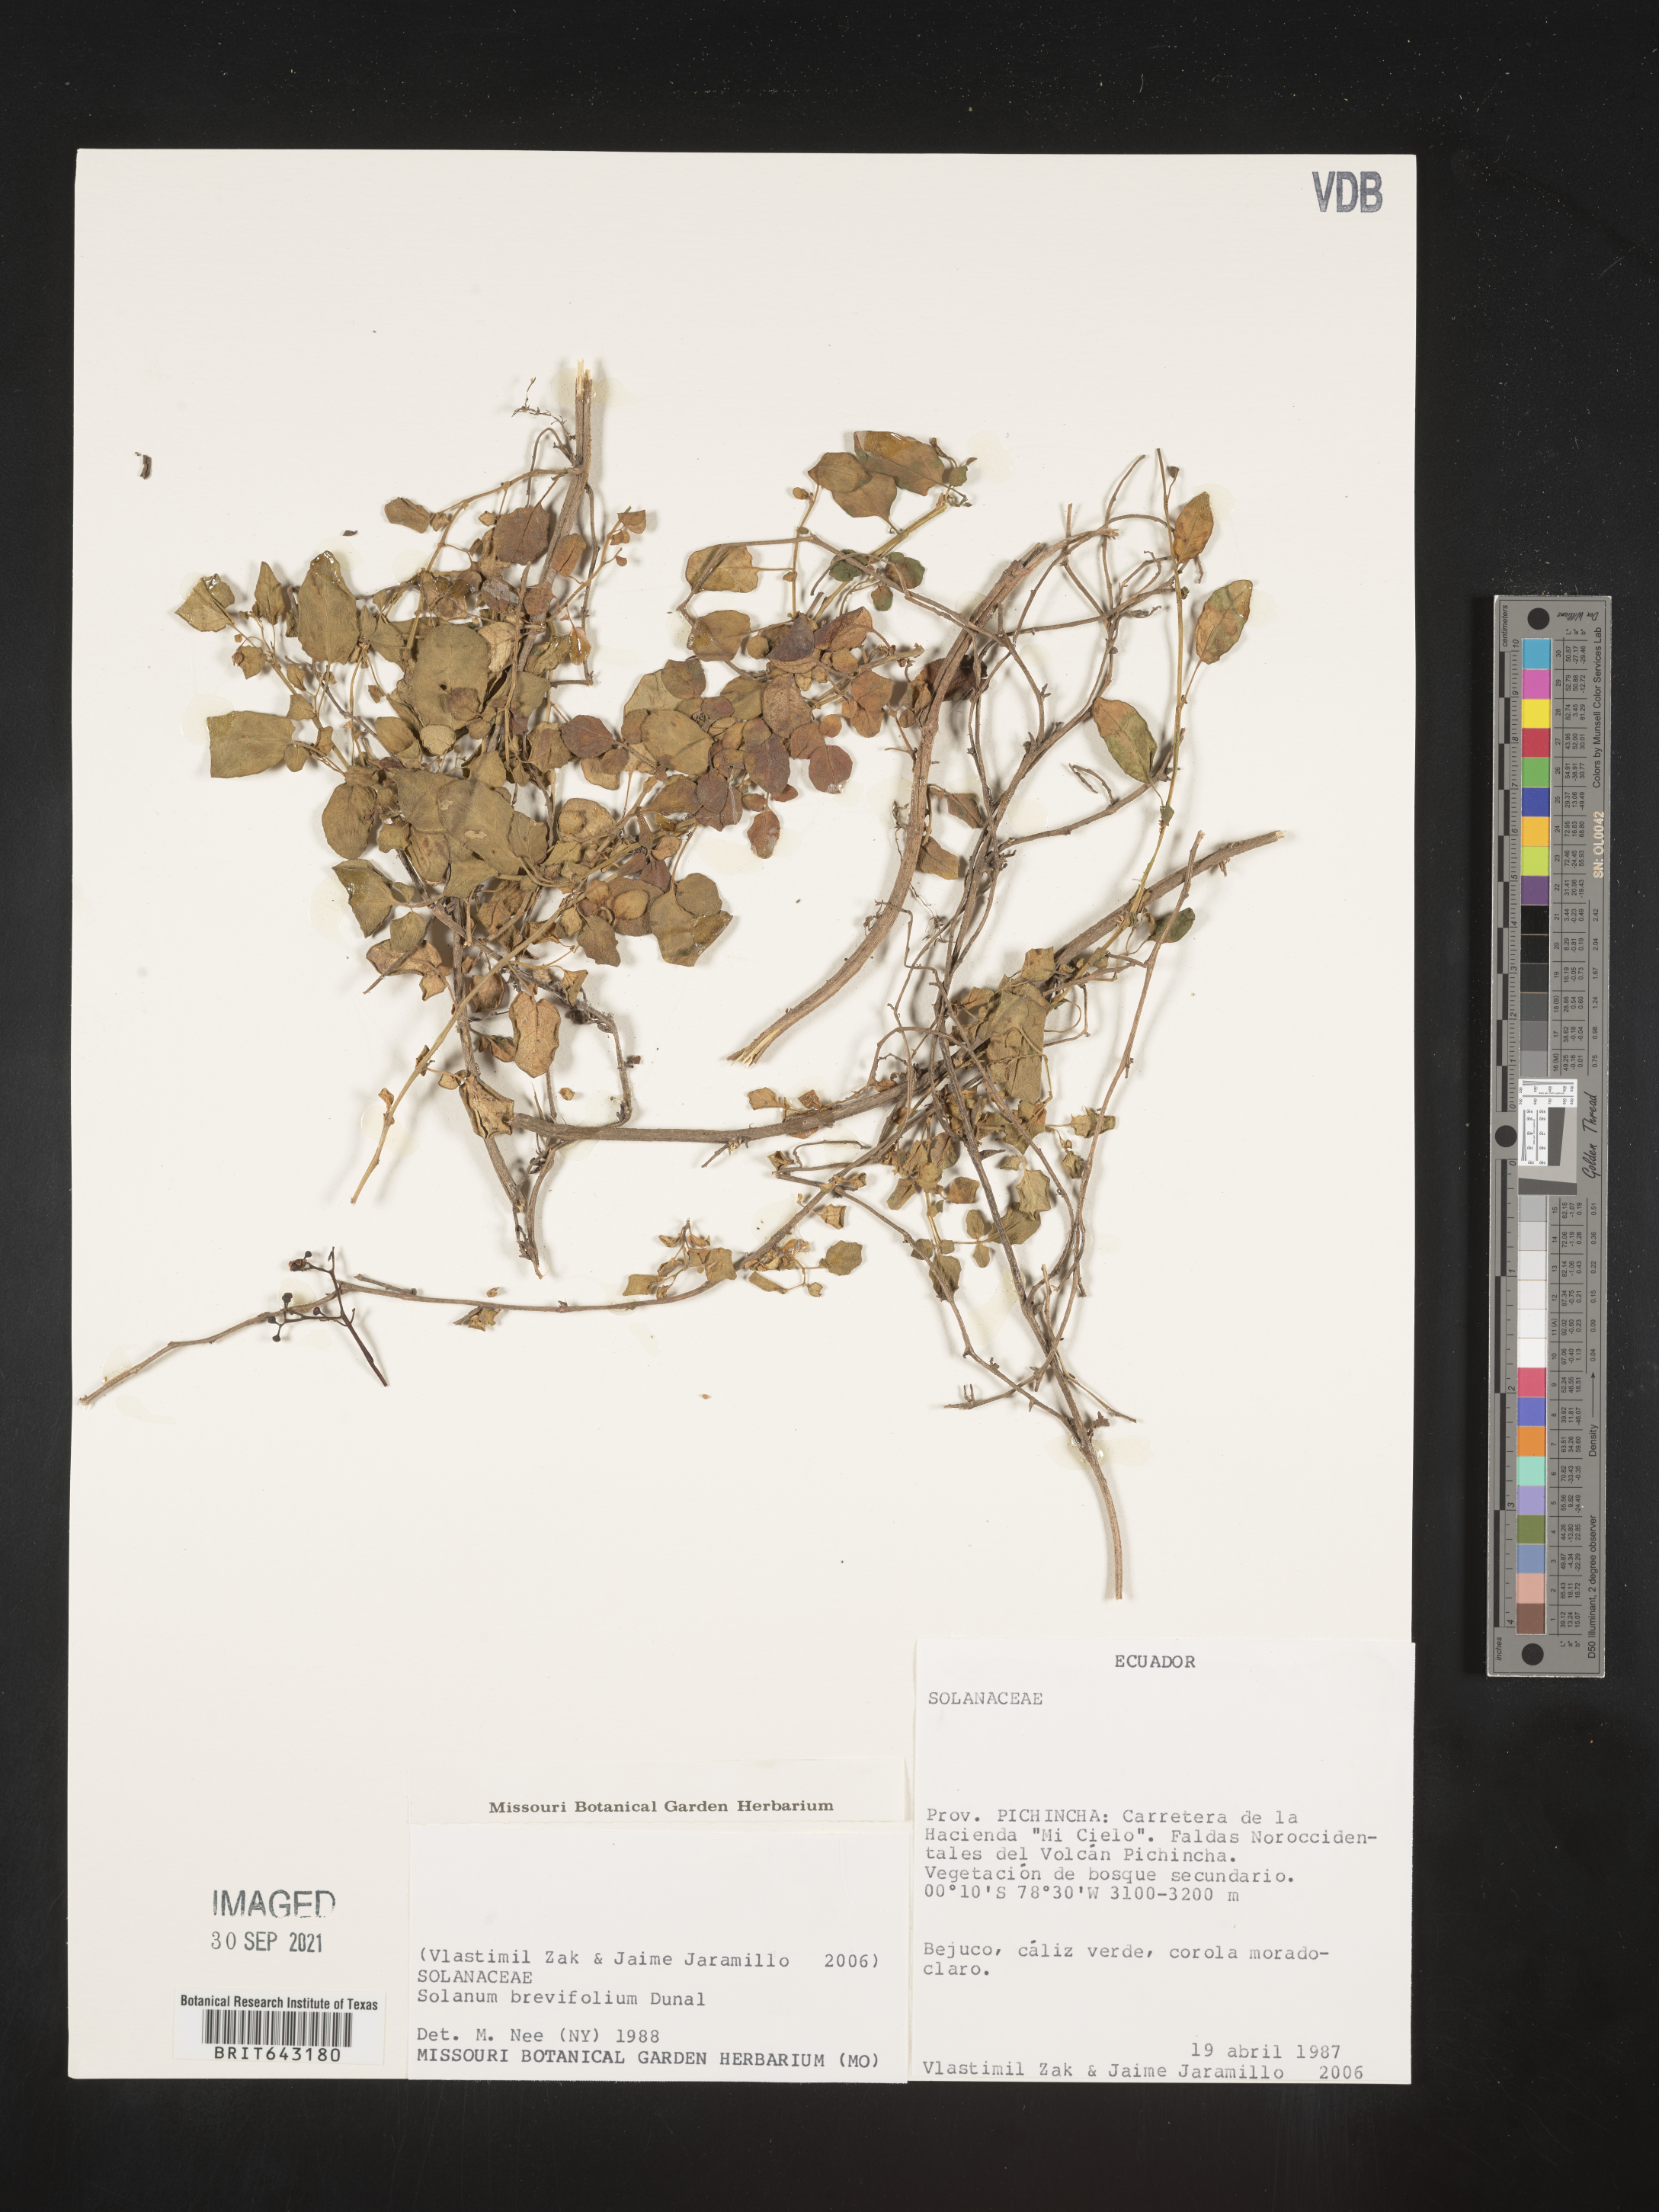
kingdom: Plantae
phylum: Tracheophyta
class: Magnoliopsida
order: Solanales
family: Solanaceae
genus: Solanum
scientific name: Solanum
